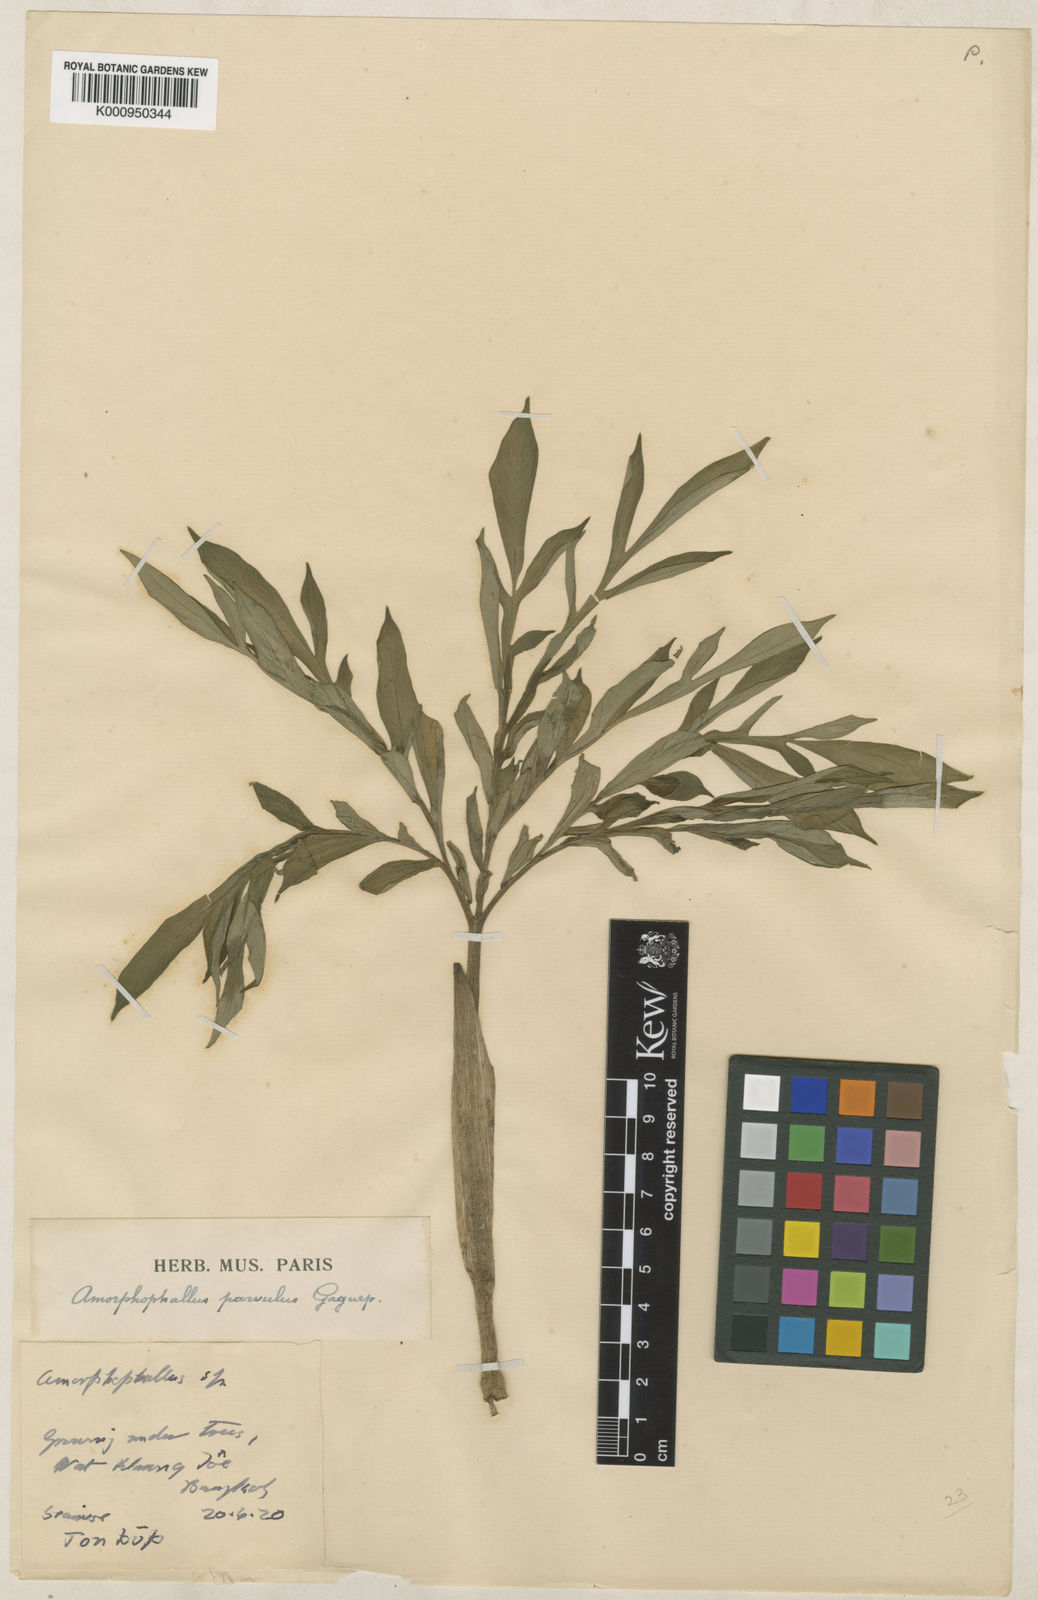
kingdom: Plantae
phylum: Tracheophyta
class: Liliopsida
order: Alismatales
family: Araceae
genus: Amorphophallus
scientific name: Amorphophallus harmandii
